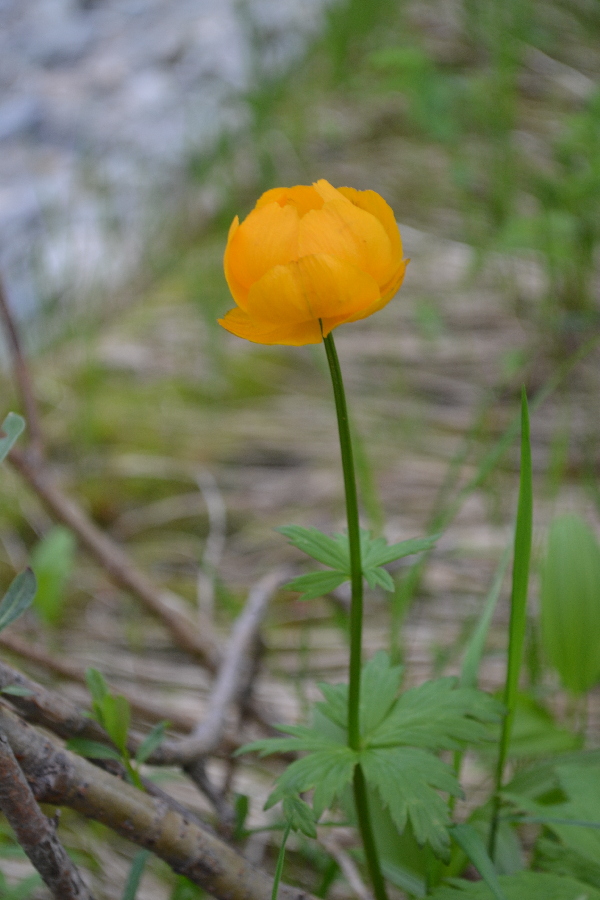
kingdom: Plantae
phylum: Tracheophyta
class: Magnoliopsida
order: Ranunculales
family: Ranunculaceae
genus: Trollius
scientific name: Trollius apertus
